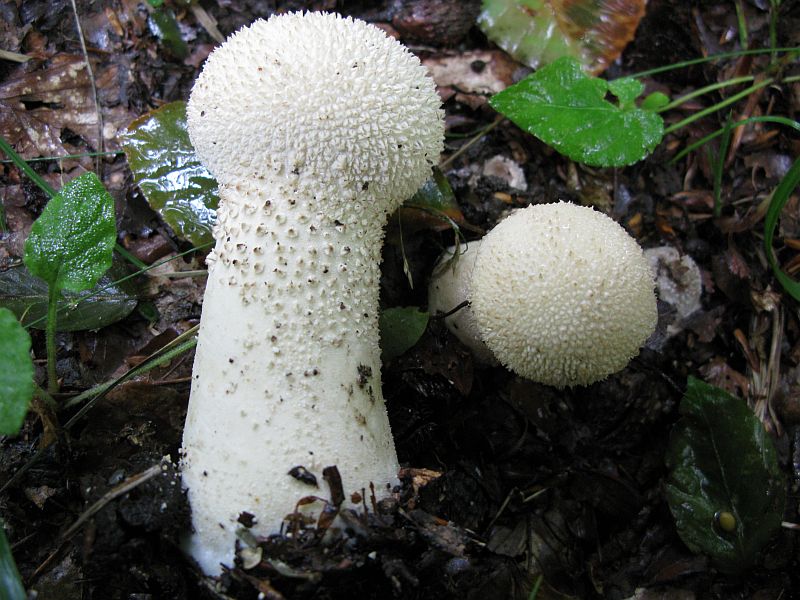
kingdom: Fungi
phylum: Basidiomycota
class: Agaricomycetes
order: Agaricales
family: Lycoperdaceae
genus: Lycoperdon
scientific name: Lycoperdon excipuliforme
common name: højstokket støvbold
